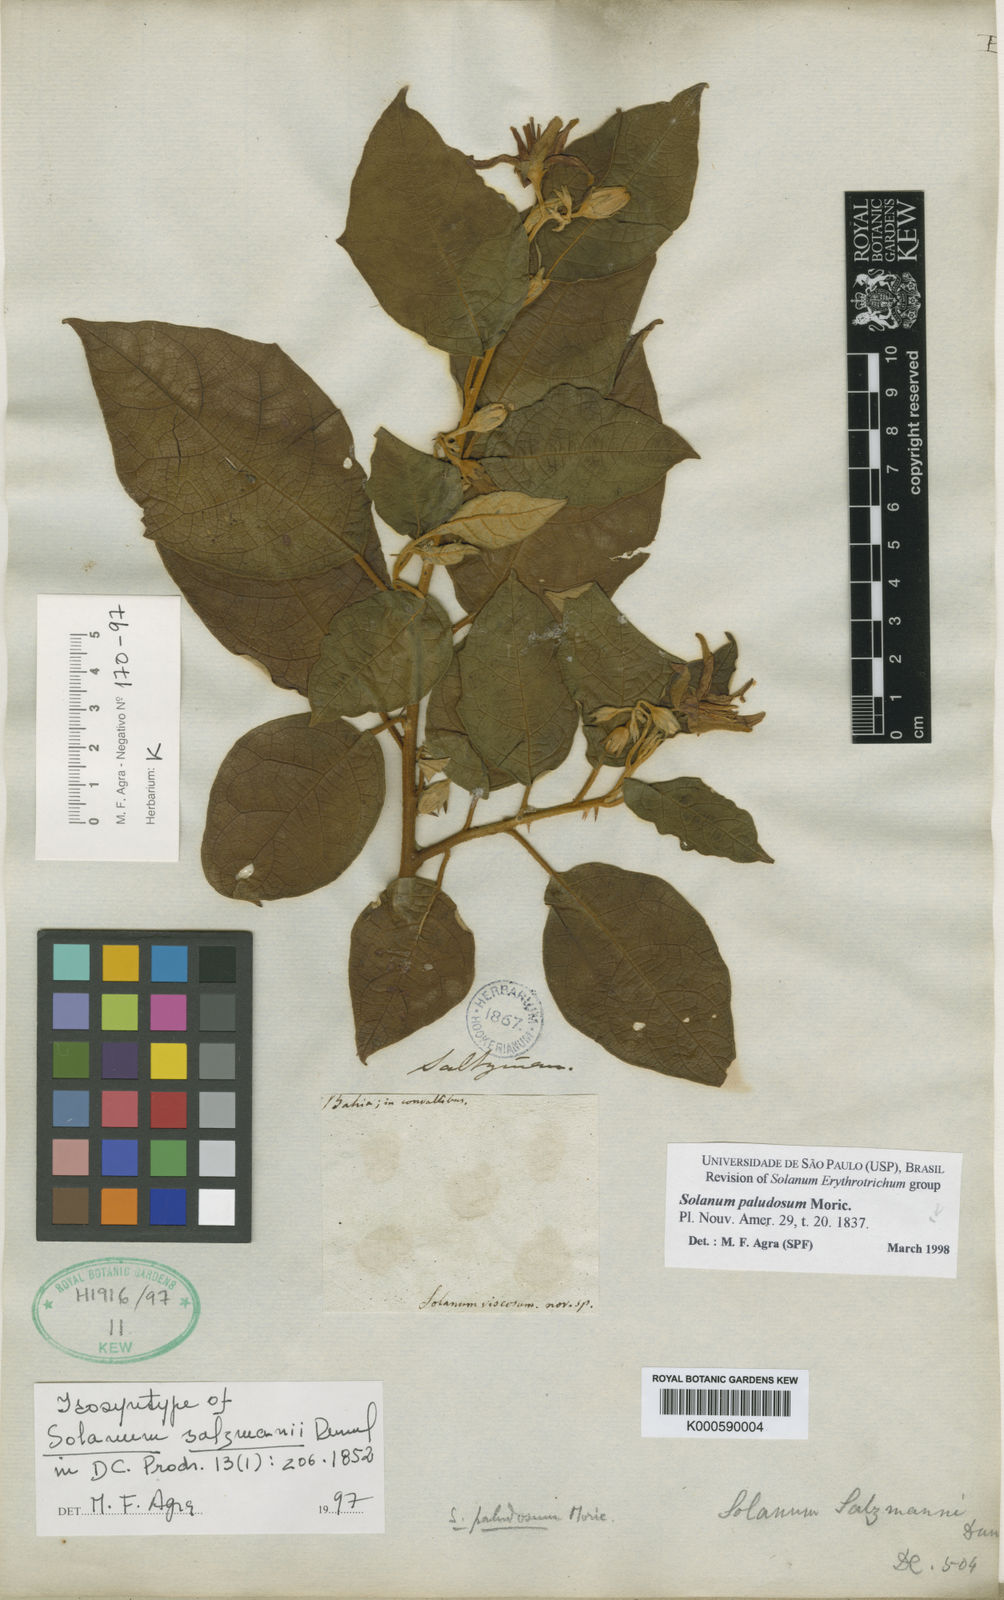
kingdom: Plantae
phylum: Tracheophyta
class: Magnoliopsida
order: Solanales
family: Solanaceae
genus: Solanum
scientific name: Solanum paludosum
